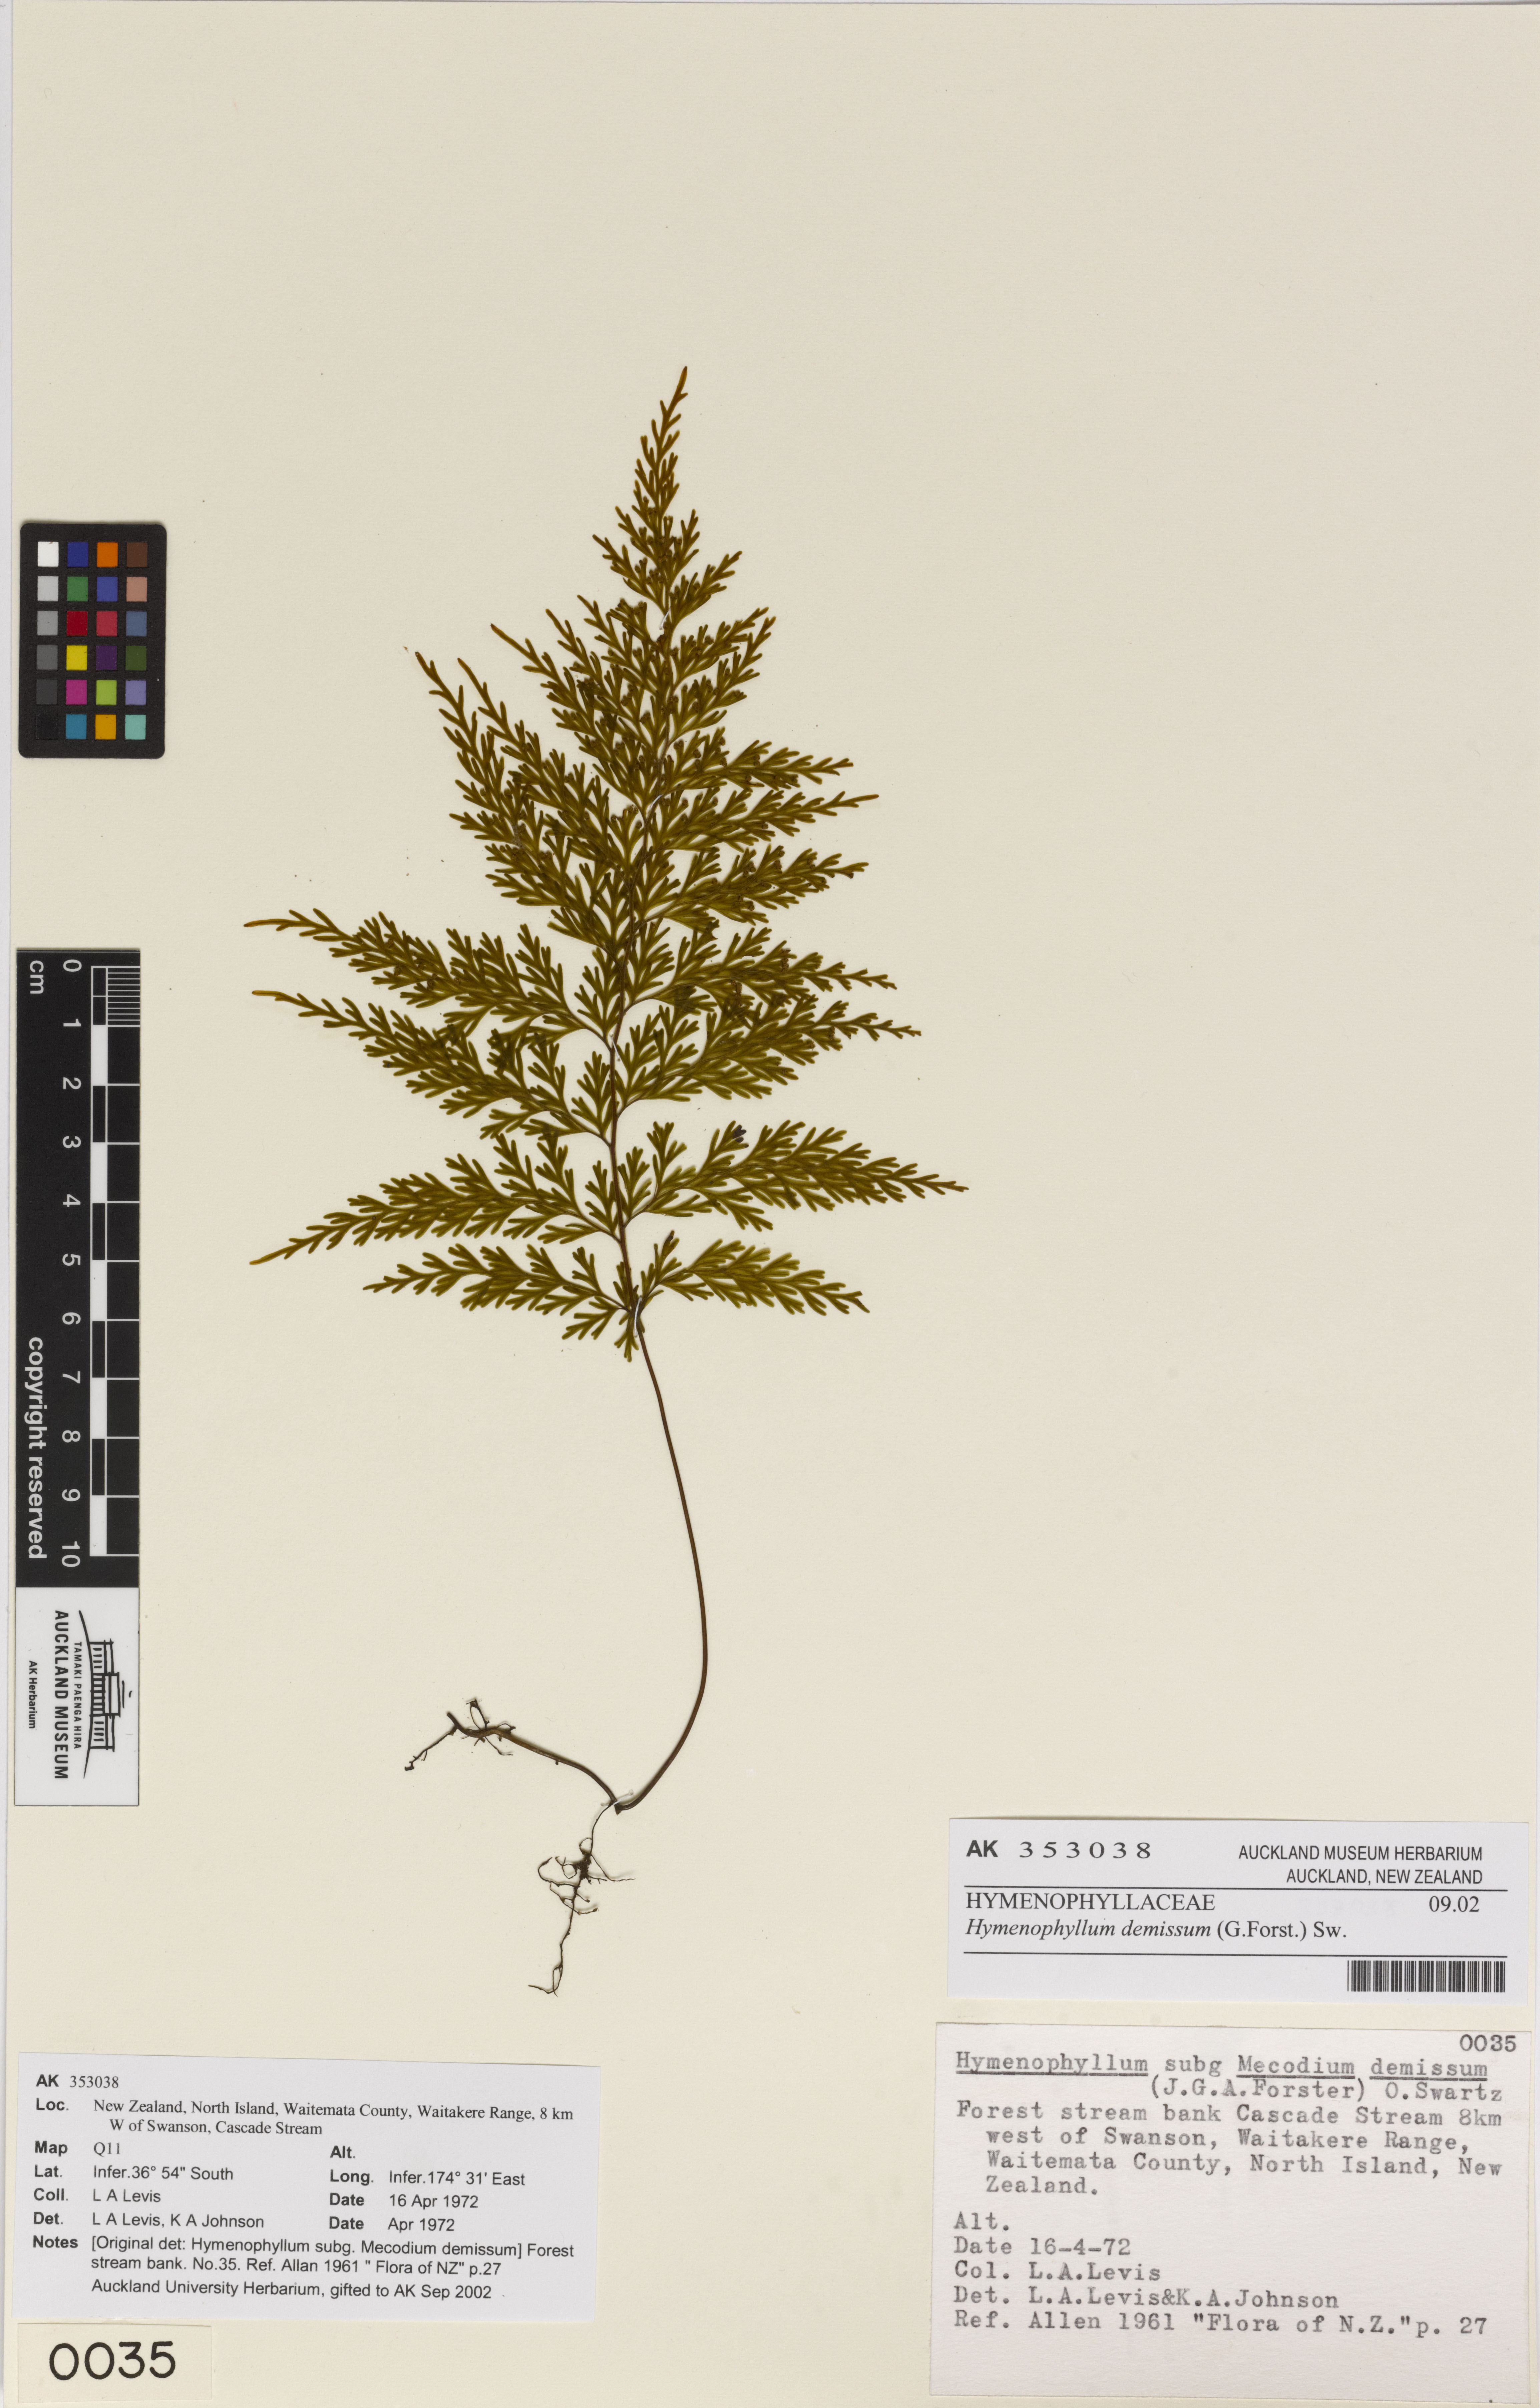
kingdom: Plantae
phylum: Tracheophyta
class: Polypodiopsida
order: Hymenophyllales
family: Hymenophyllaceae
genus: Hymenophyllum
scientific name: Hymenophyllum demissum
